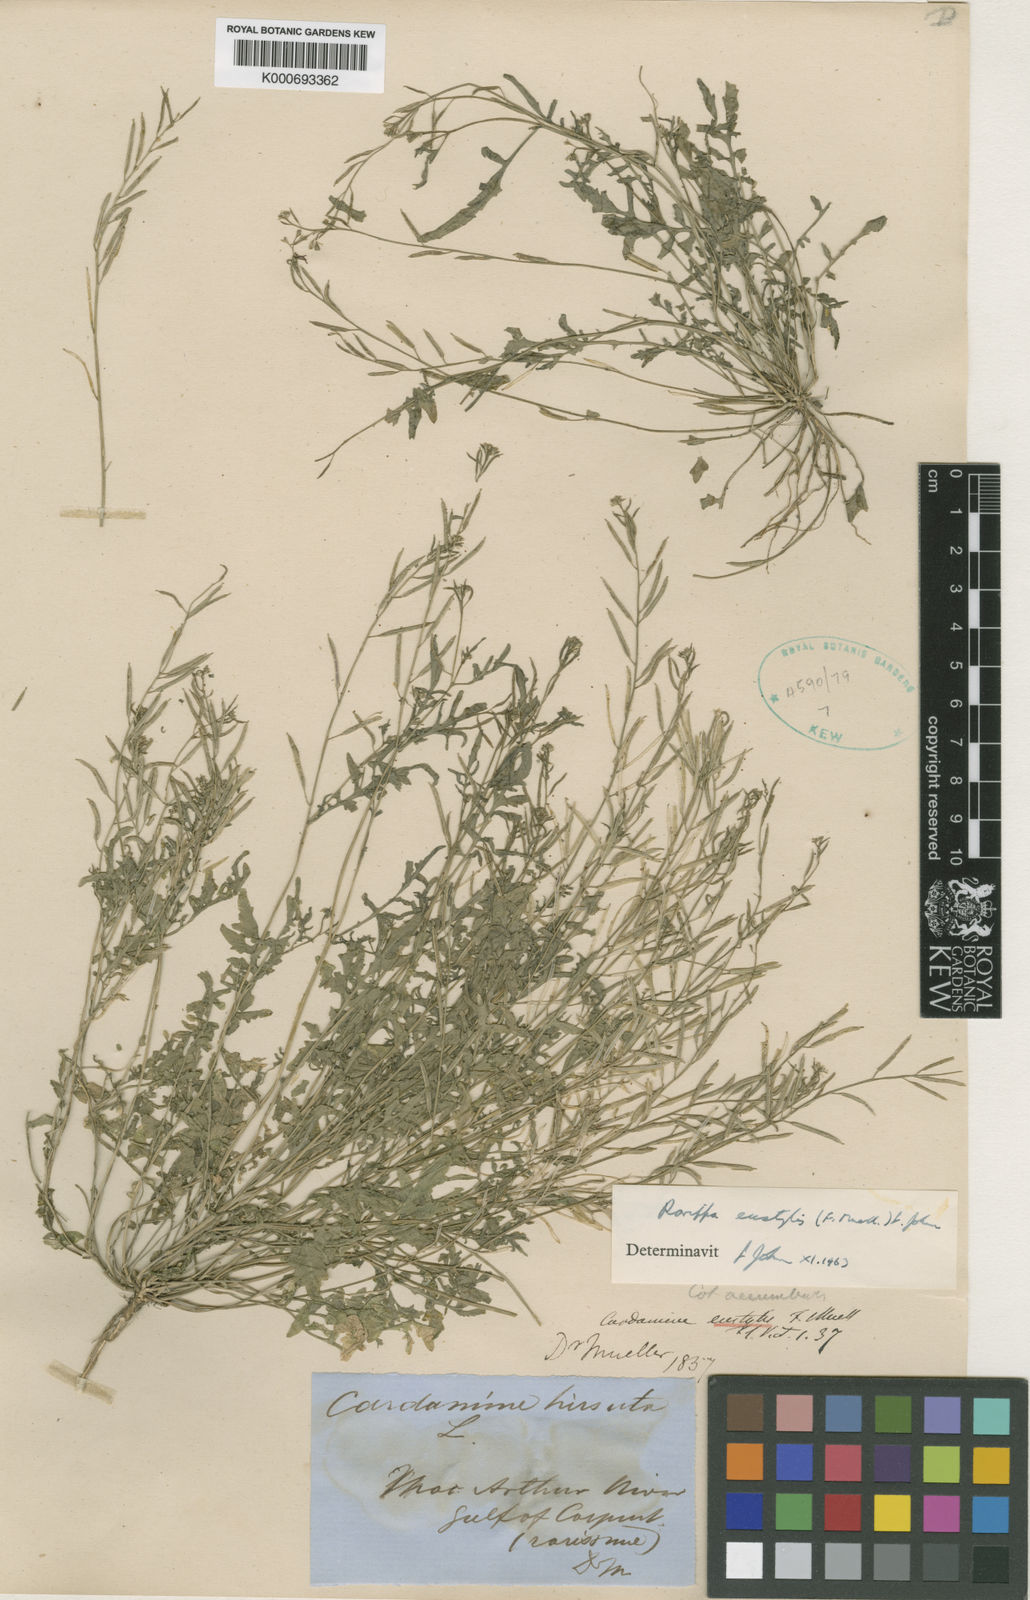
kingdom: Plantae
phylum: Tracheophyta
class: Magnoliopsida
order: Brassicales
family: Brassicaceae
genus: Rorippa
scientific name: Rorippa eustylis
